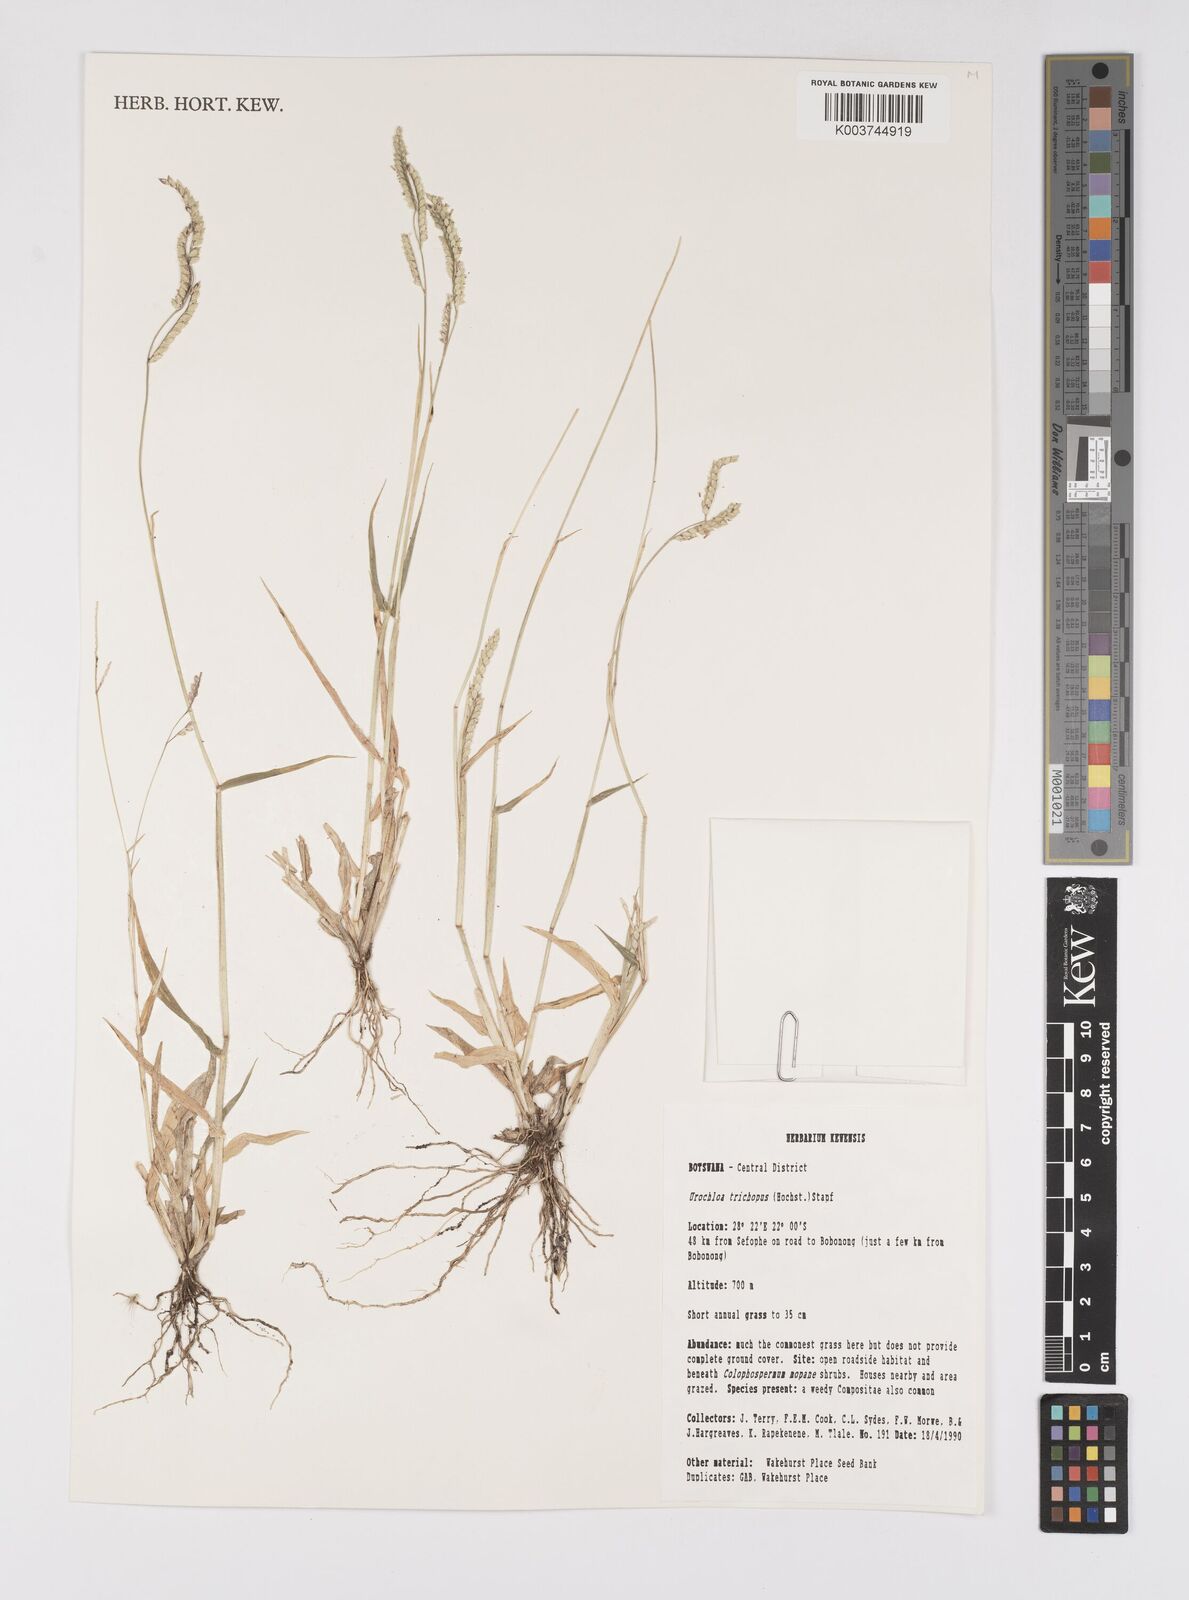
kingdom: Plantae
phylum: Tracheophyta
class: Liliopsida
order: Poales
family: Poaceae
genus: Urochloa
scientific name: Urochloa trichopus
